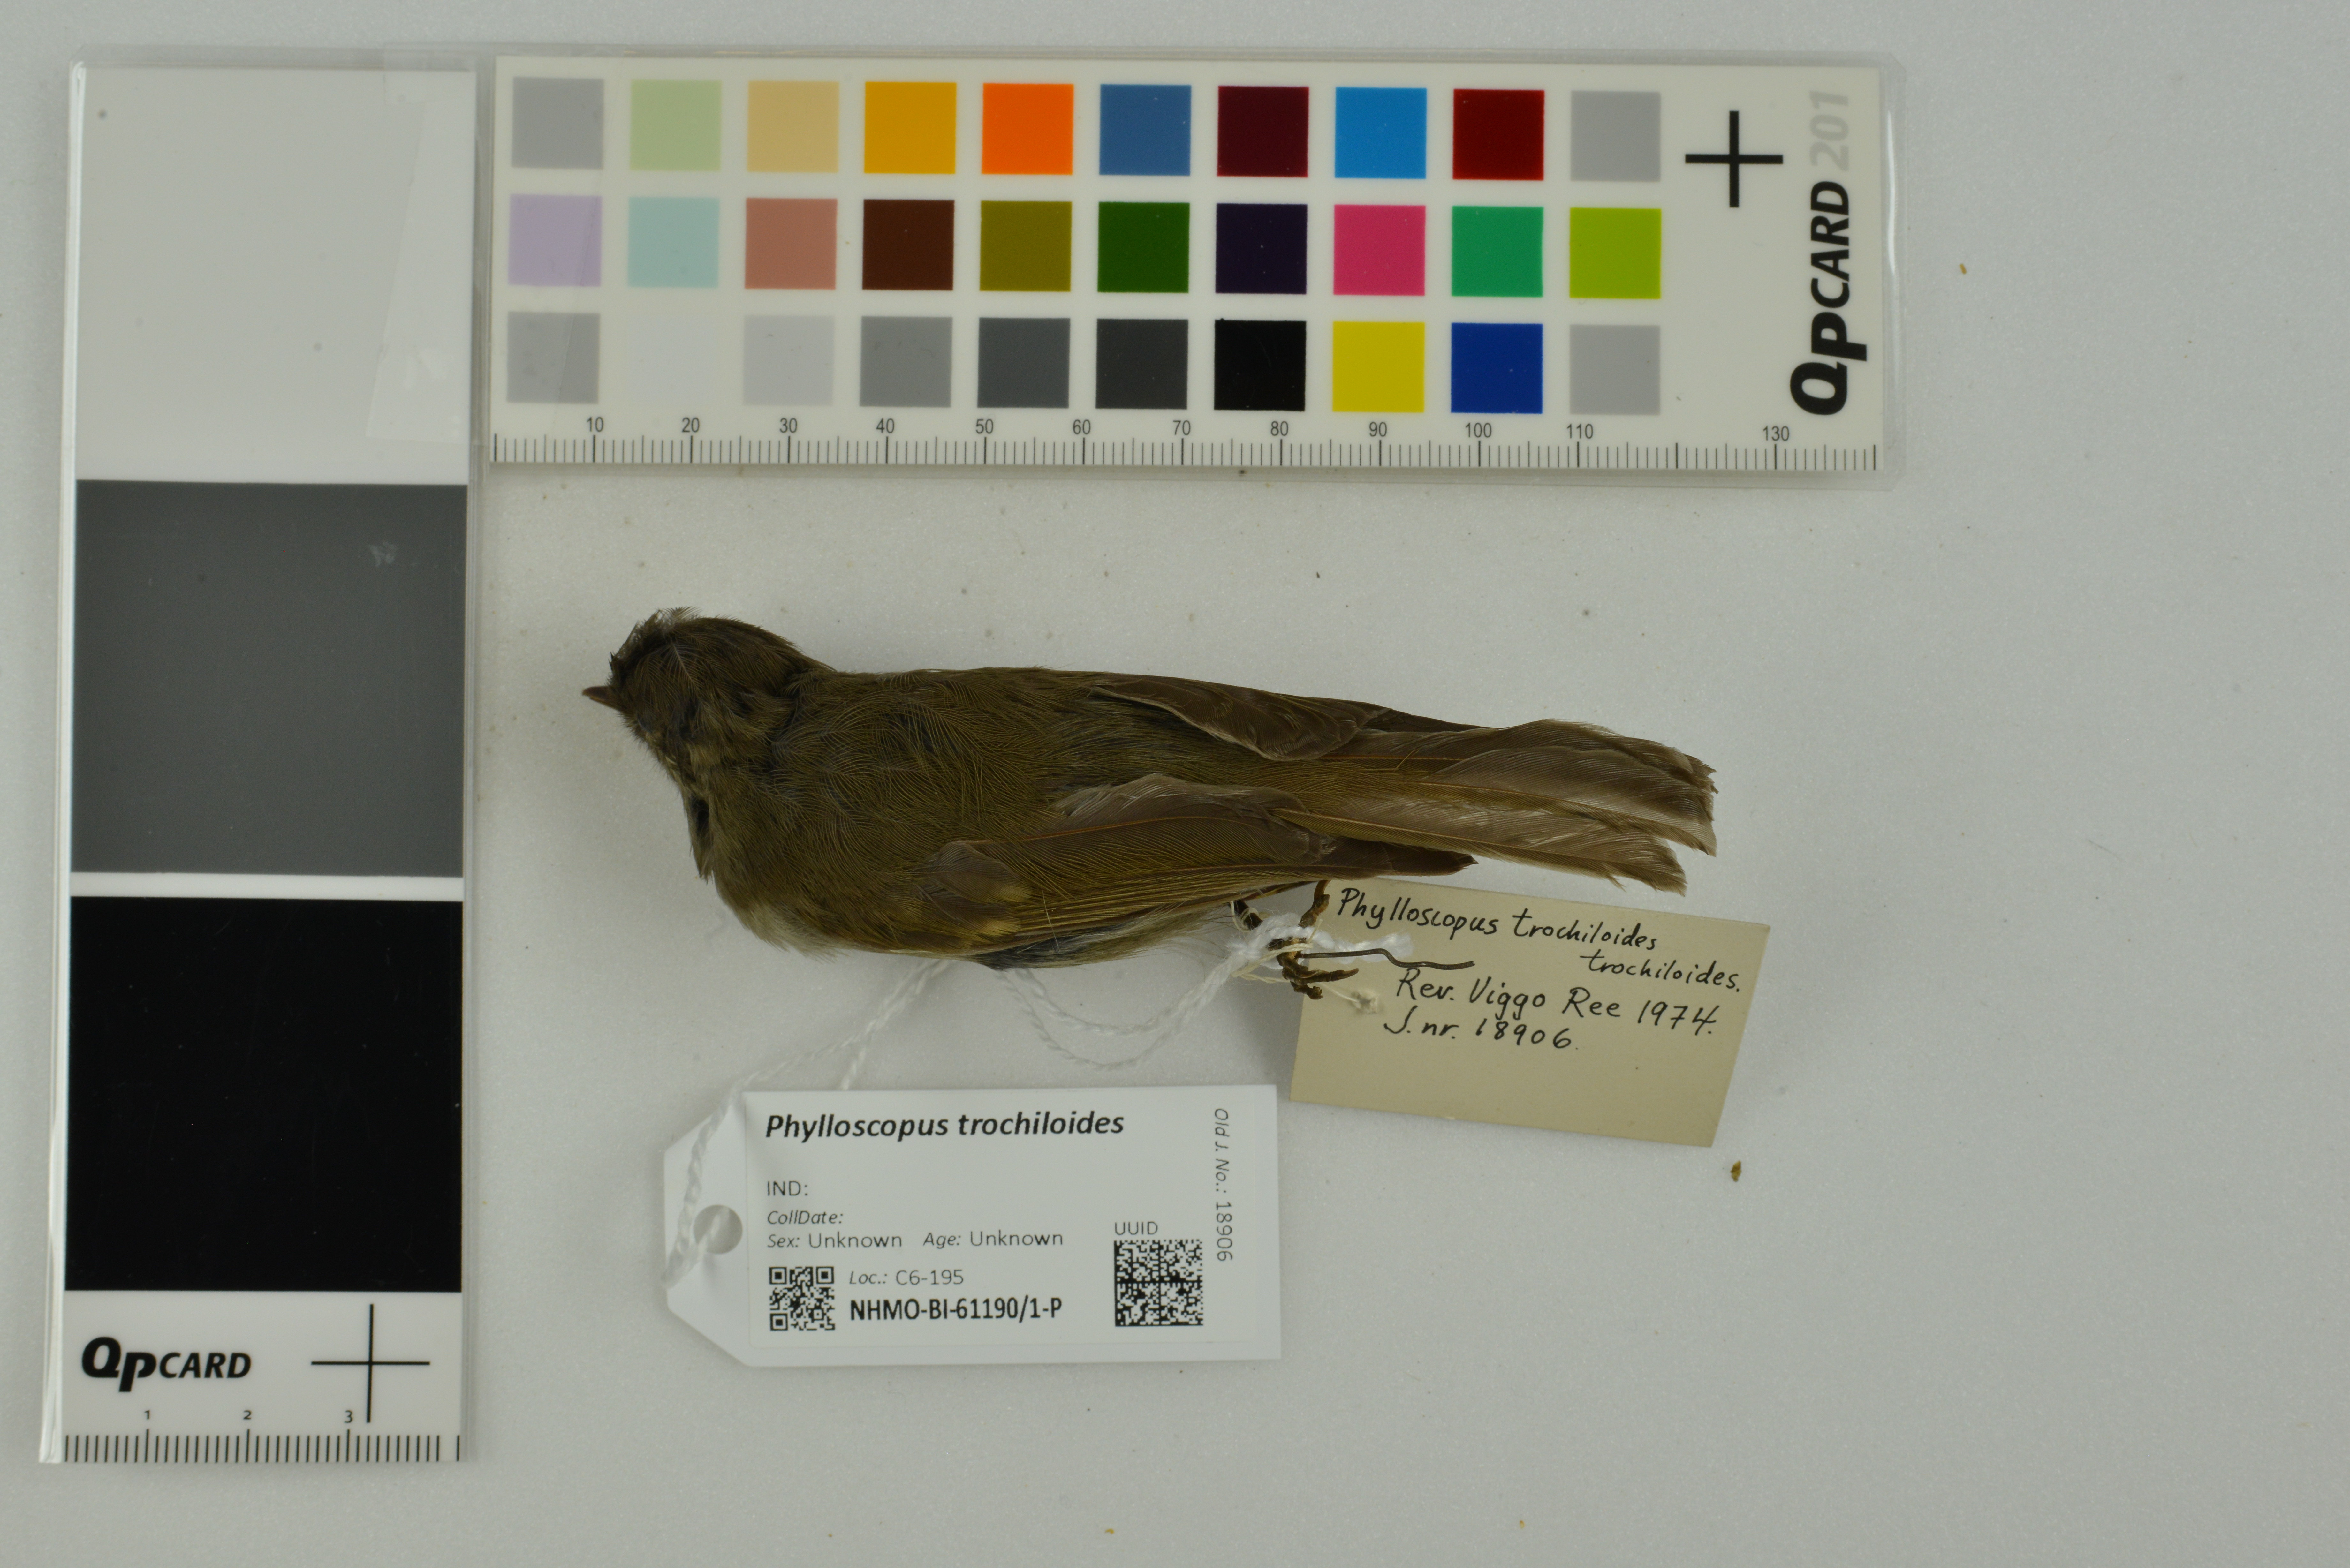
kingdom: Animalia
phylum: Chordata
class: Aves
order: Passeriformes
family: Phylloscopidae
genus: Phylloscopus
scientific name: Phylloscopus trochiloides
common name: Greenish warbler
